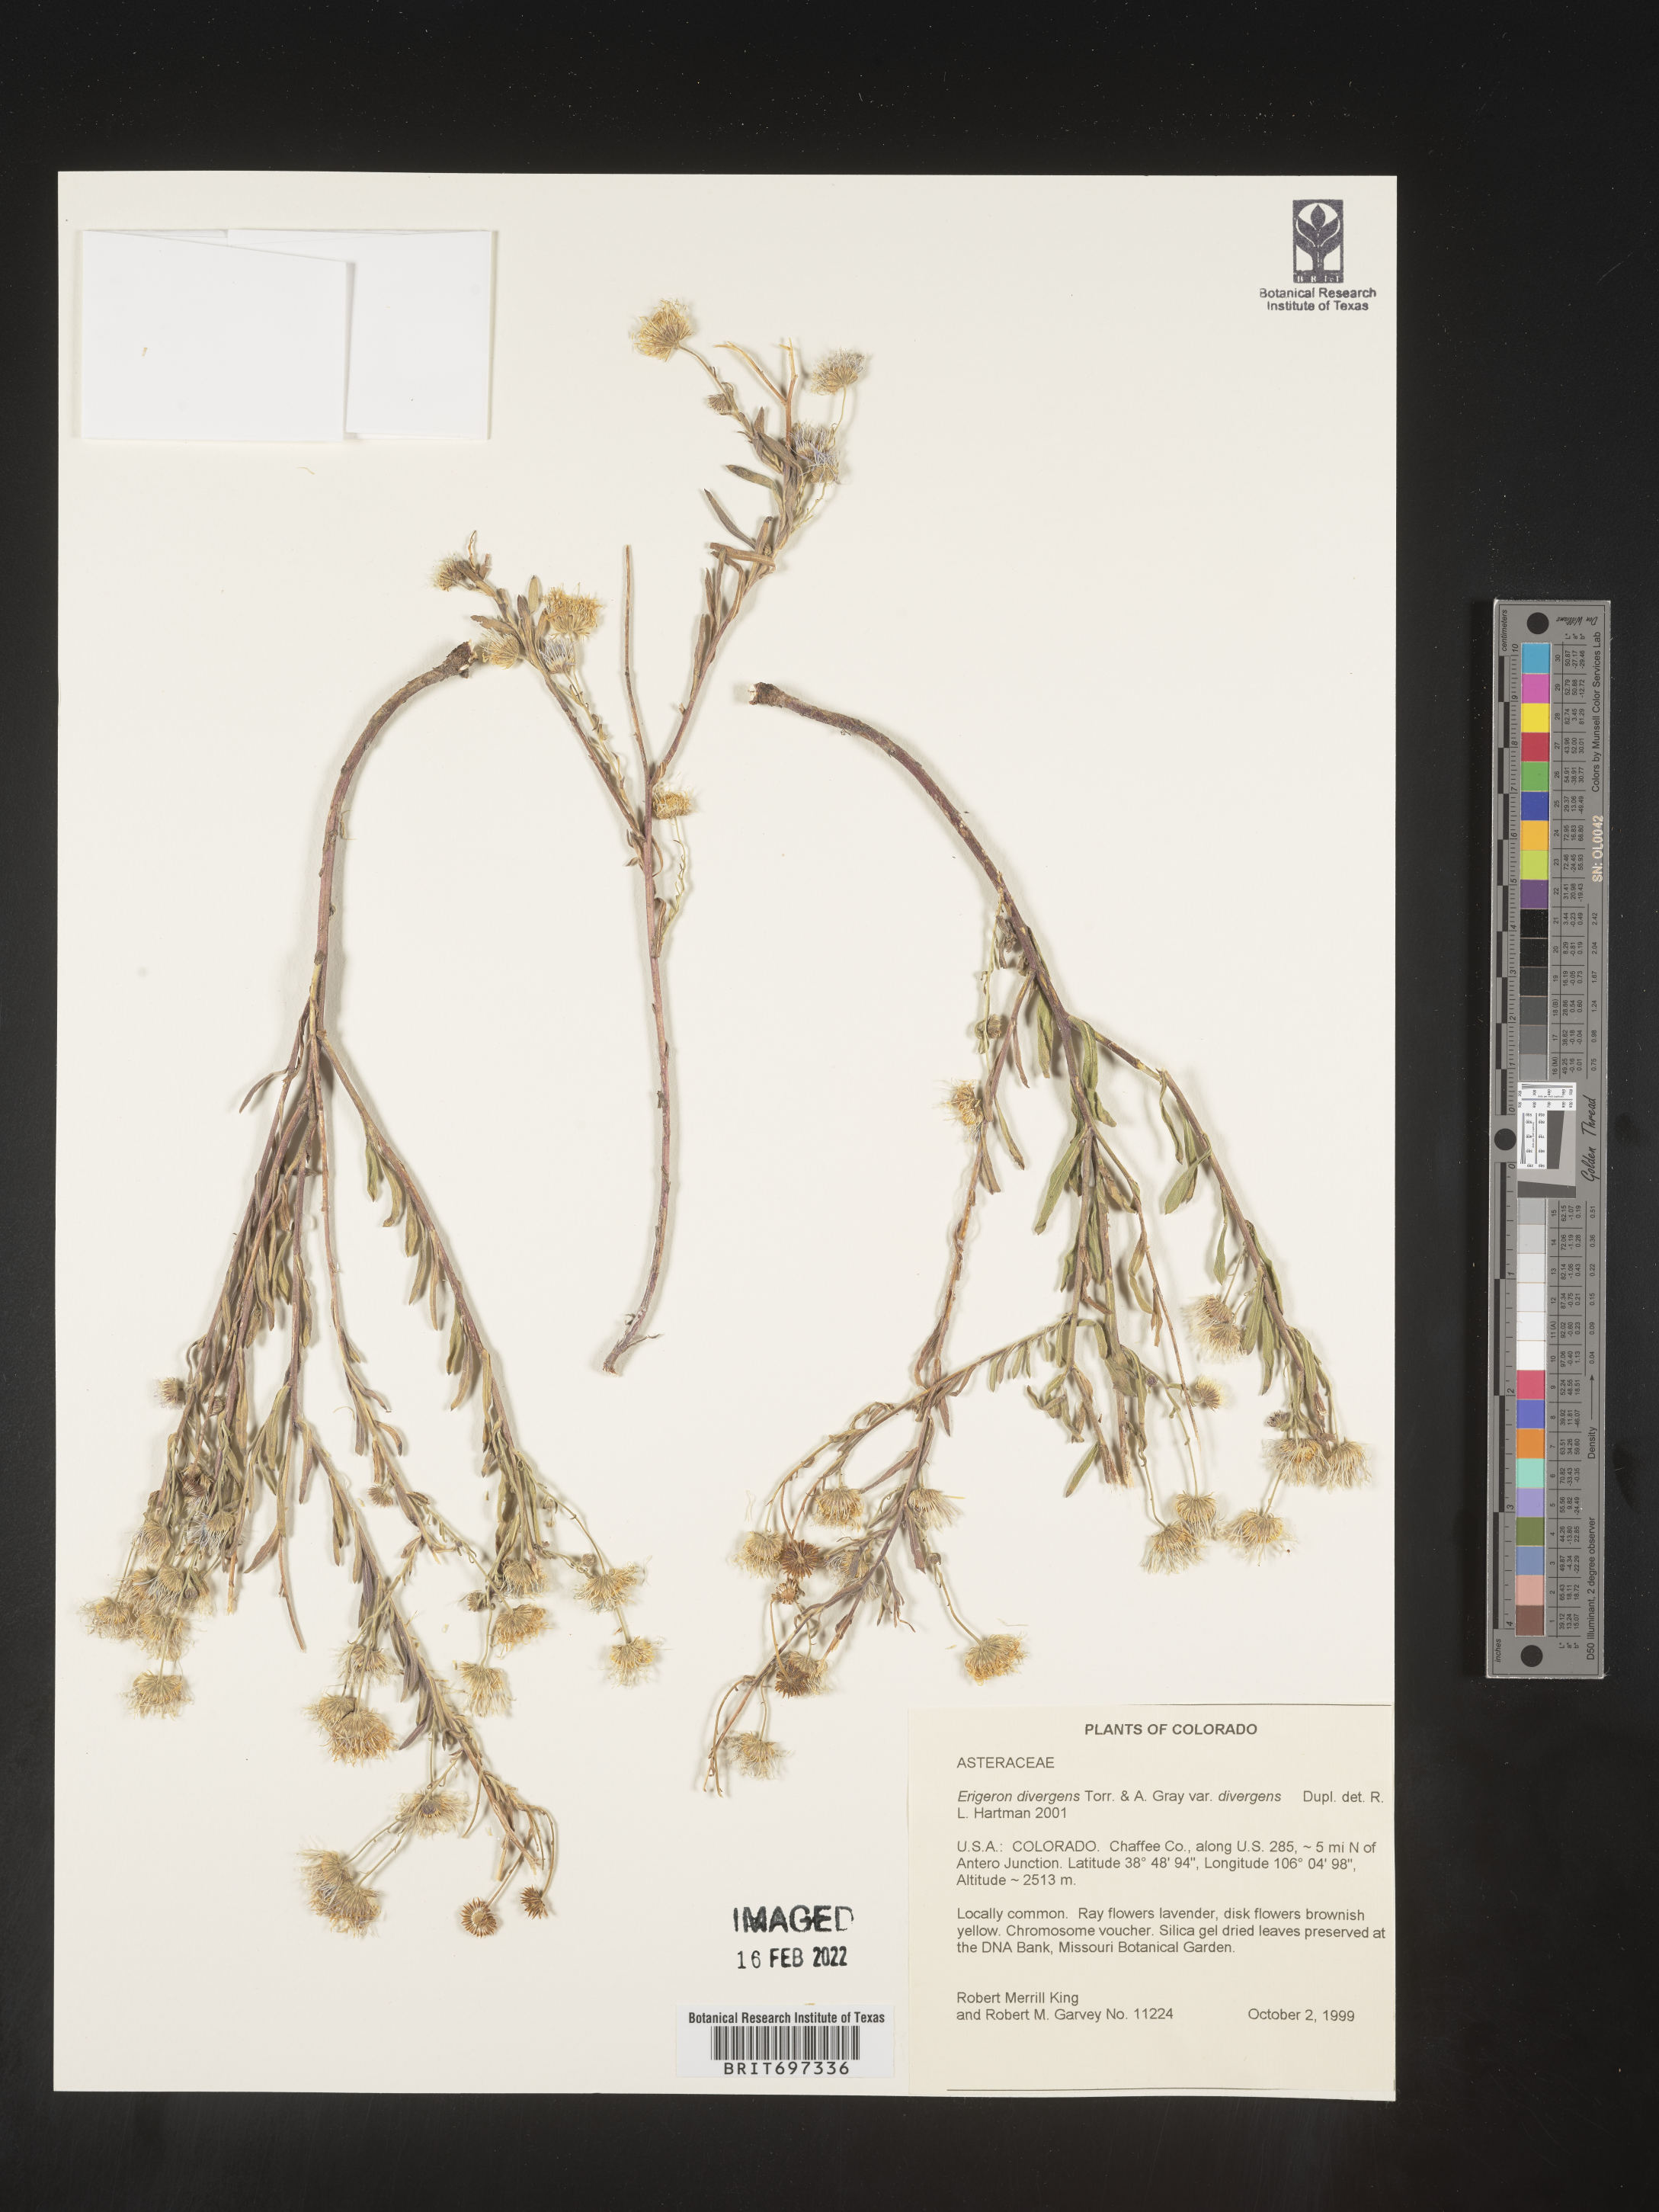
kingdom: Plantae
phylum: Tracheophyta
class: Magnoliopsida
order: Asterales
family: Asteraceae
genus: Erigeron
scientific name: Erigeron divergens
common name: Diffuse fleabane
